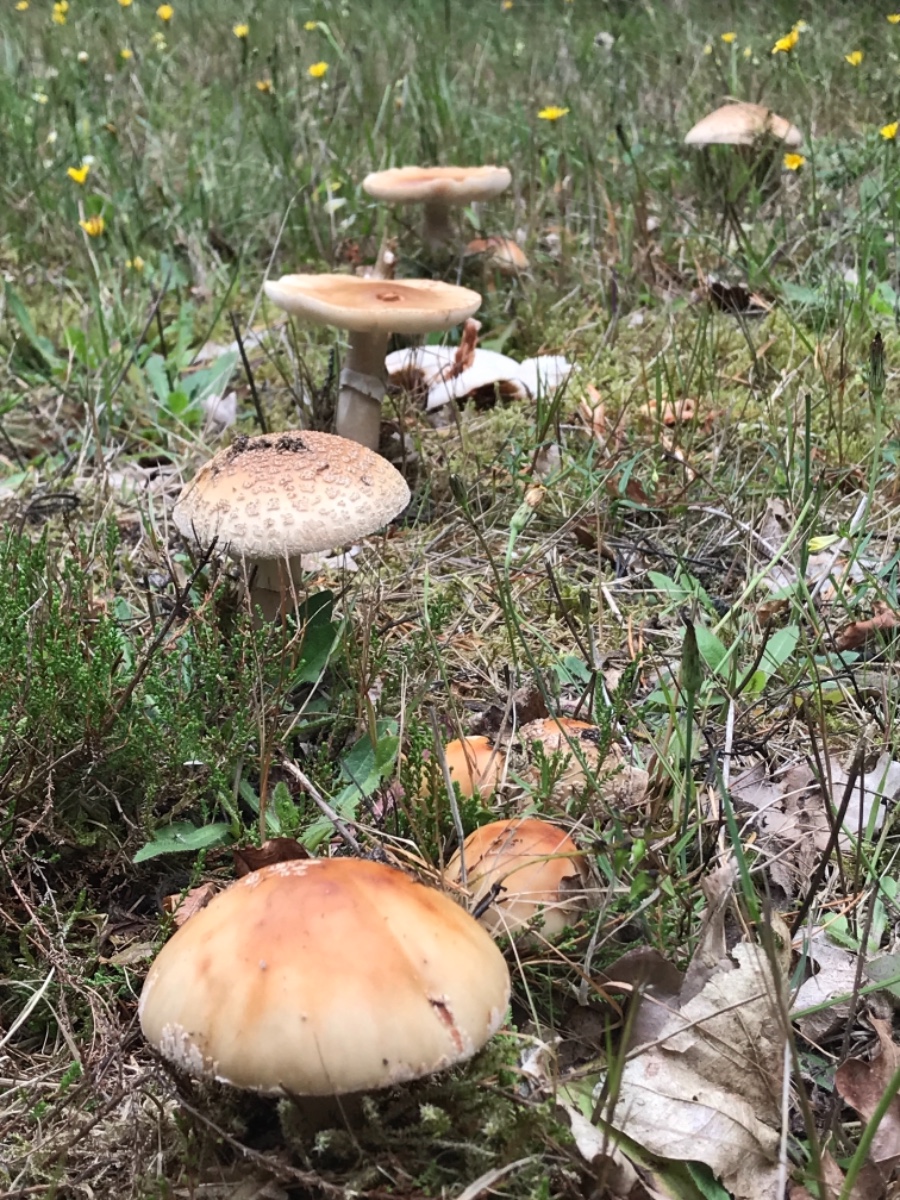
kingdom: Fungi
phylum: Basidiomycota
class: Agaricomycetes
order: Agaricales
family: Amanitaceae
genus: Amanita
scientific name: Amanita rubescens
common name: rødmende fluesvamp
